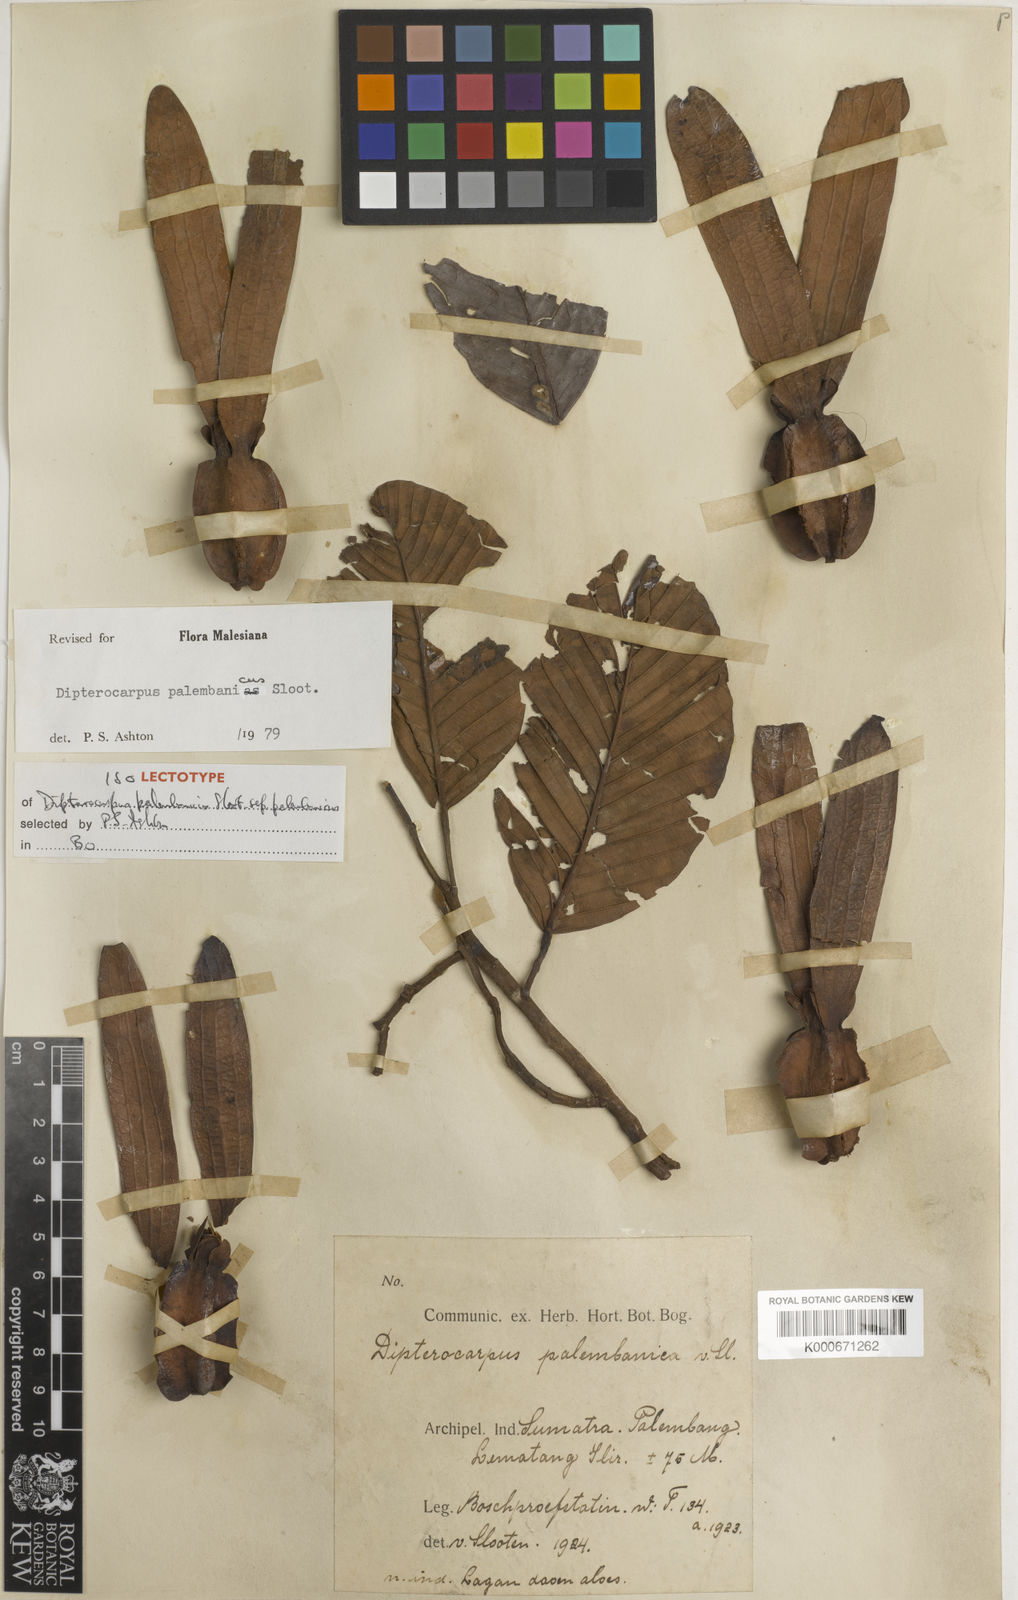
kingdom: Plantae
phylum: Tracheophyta
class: Magnoliopsida
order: Malvales
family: Dipterocarpaceae
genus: Dipterocarpus
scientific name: Dipterocarpus palembanicus
